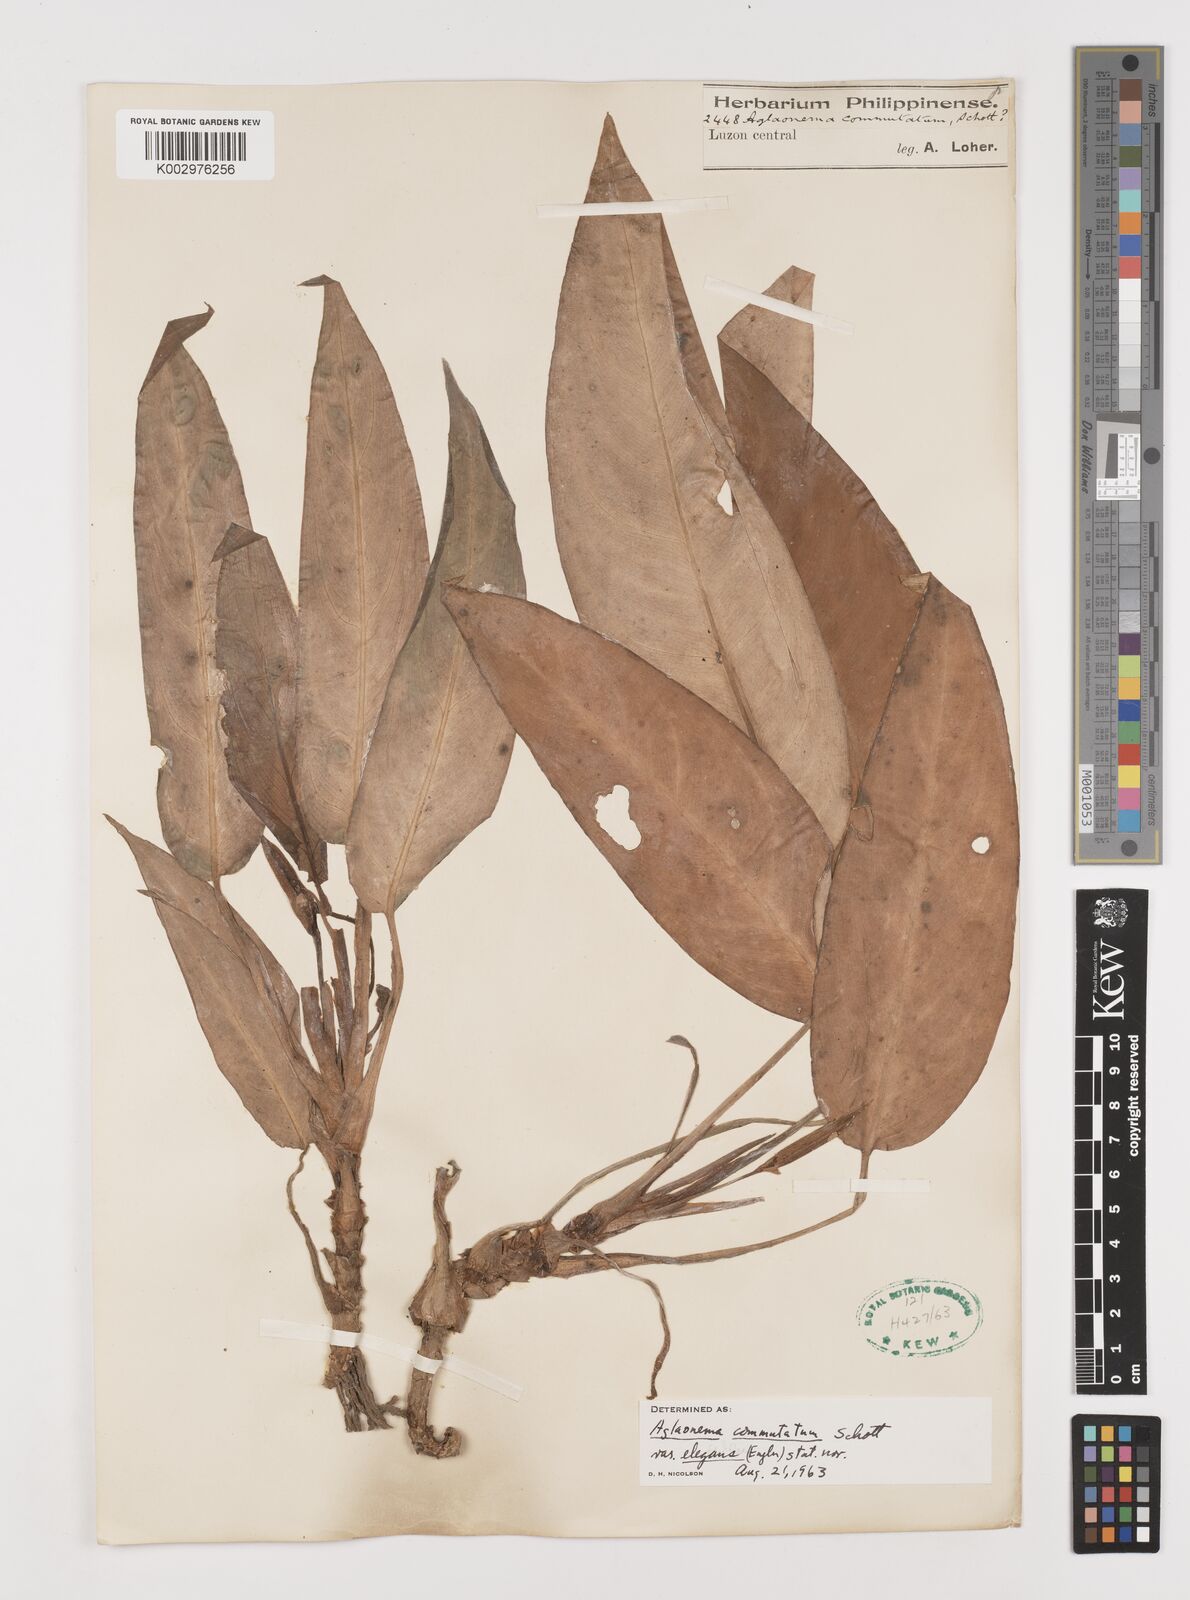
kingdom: Plantae
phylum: Tracheophyta
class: Liliopsida
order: Alismatales
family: Araceae
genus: Aglaonema
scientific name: Aglaonema commutatum
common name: Philippine evergreen
